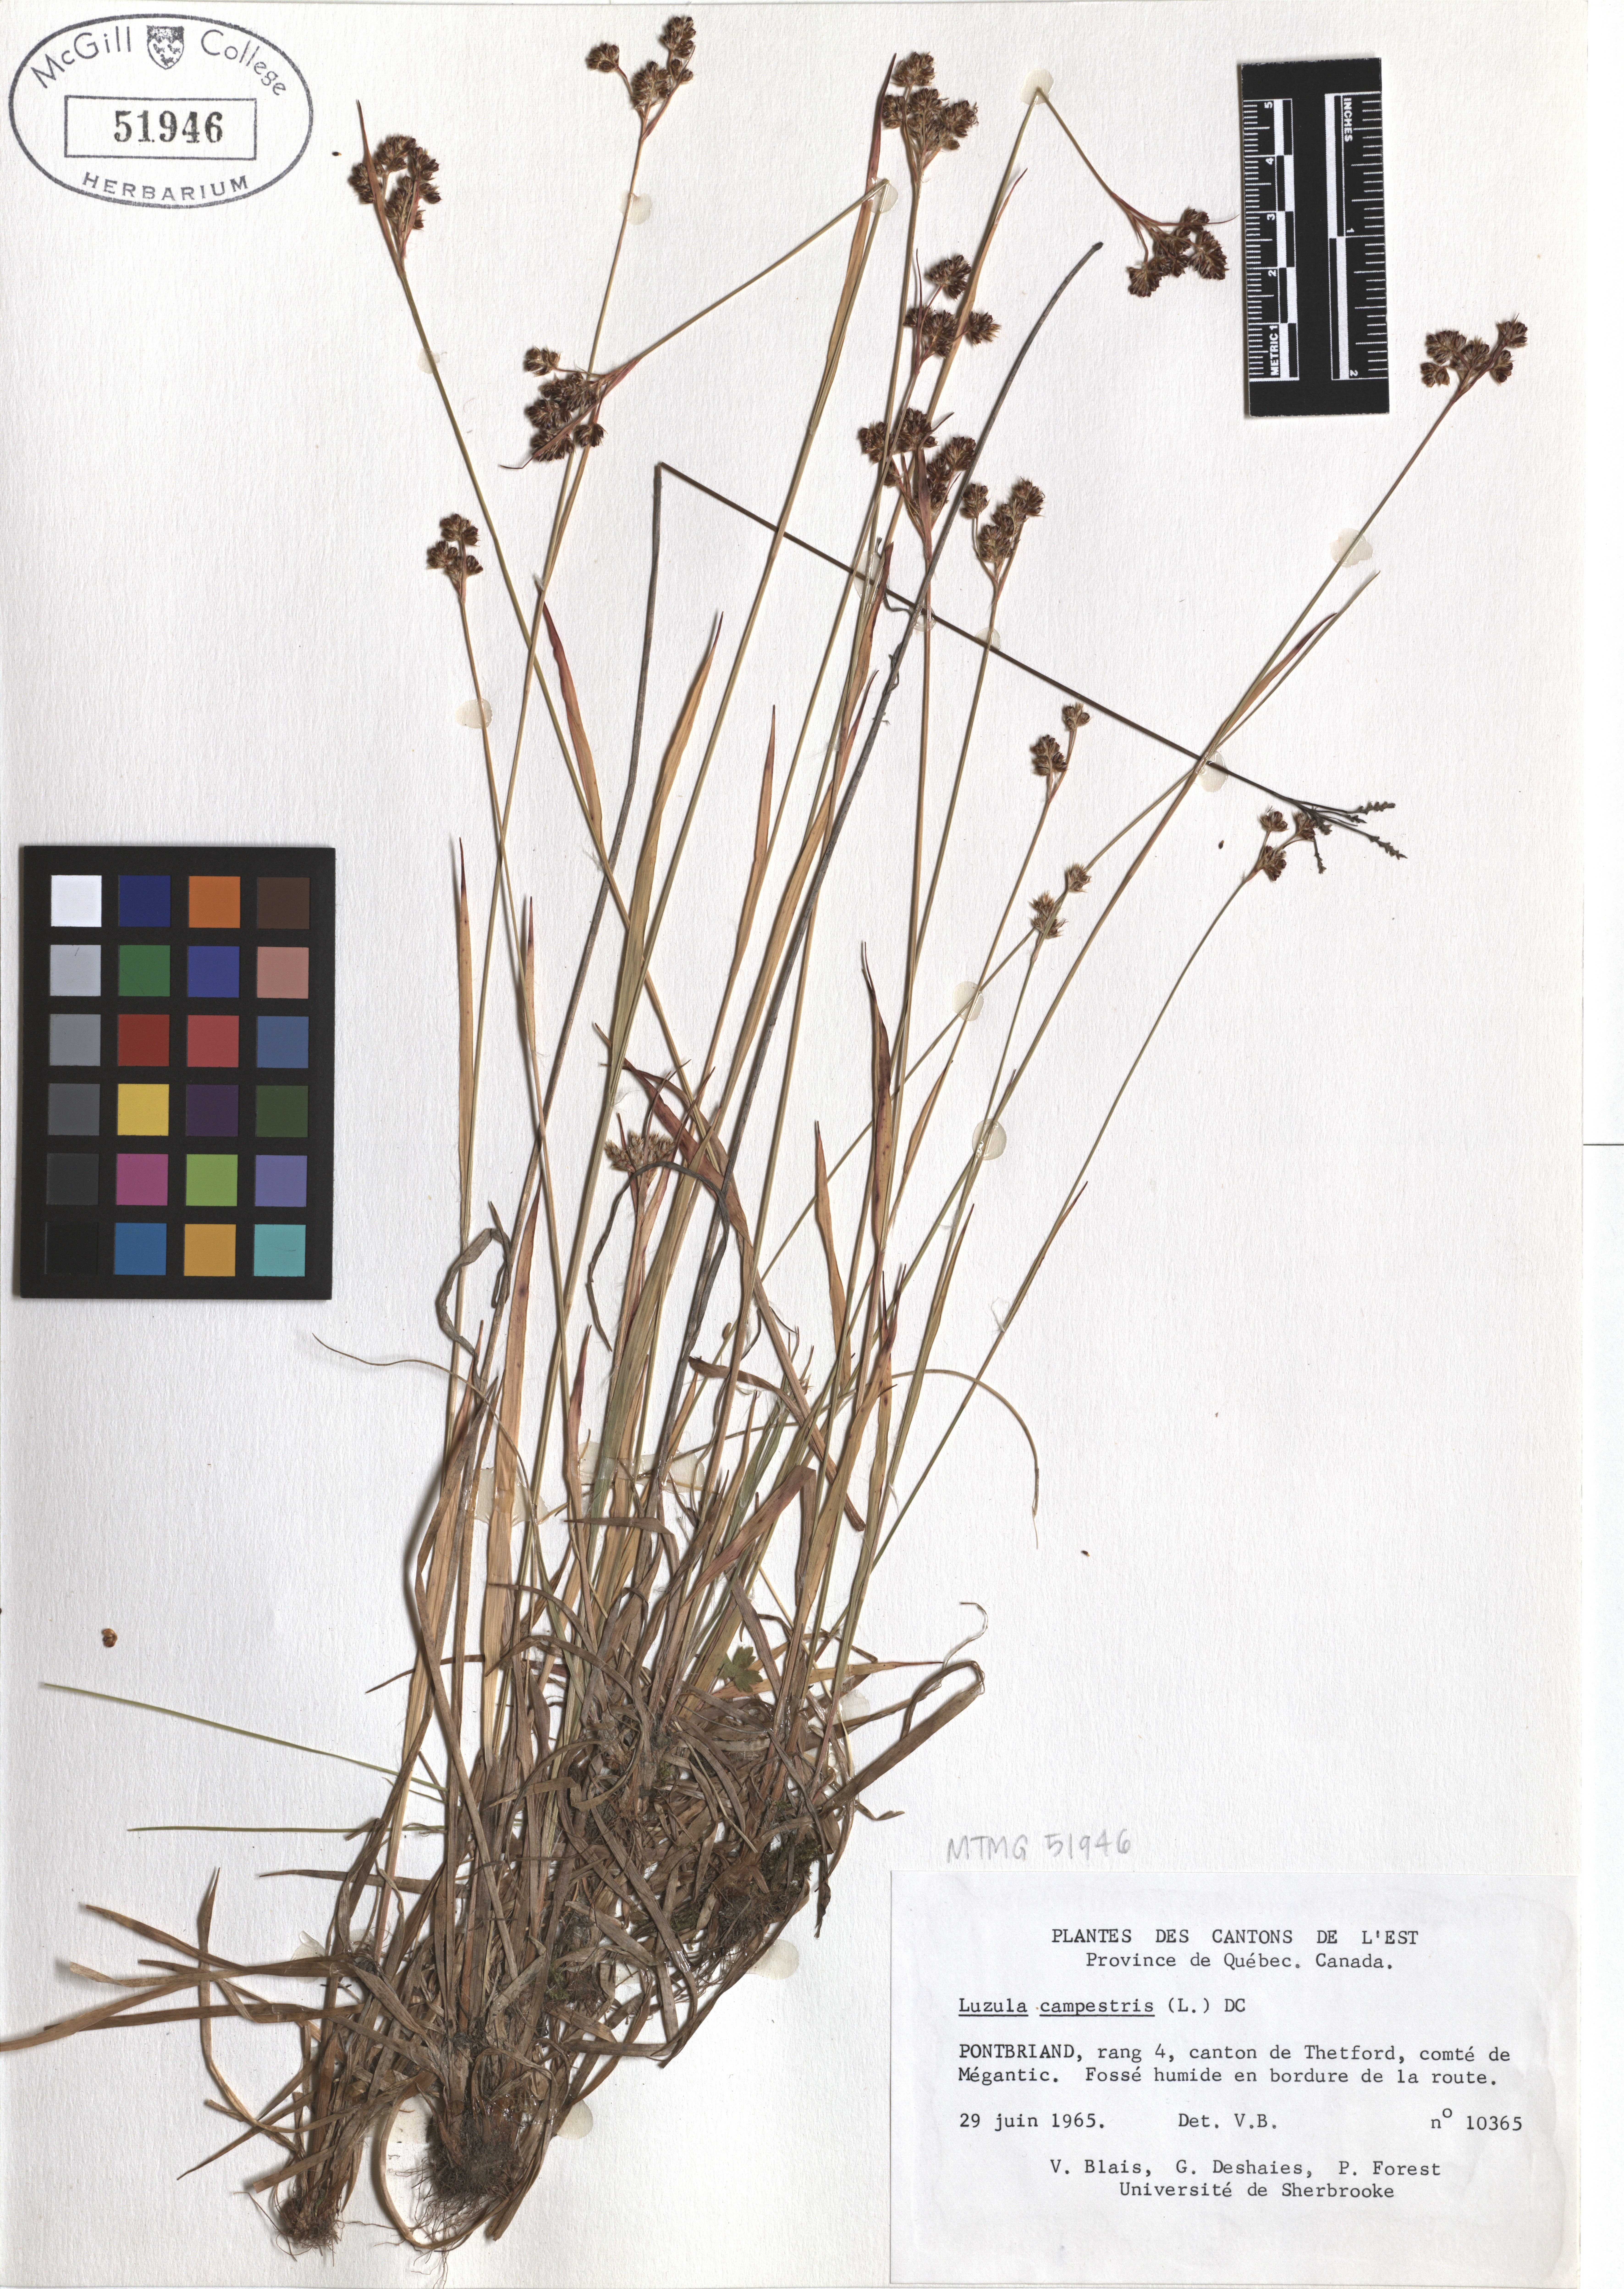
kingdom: Plantae
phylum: Tracheophyta
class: Liliopsida
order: Poales
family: Juncaceae
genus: Luzula
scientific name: Luzula campestris
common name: Field wood-rush
